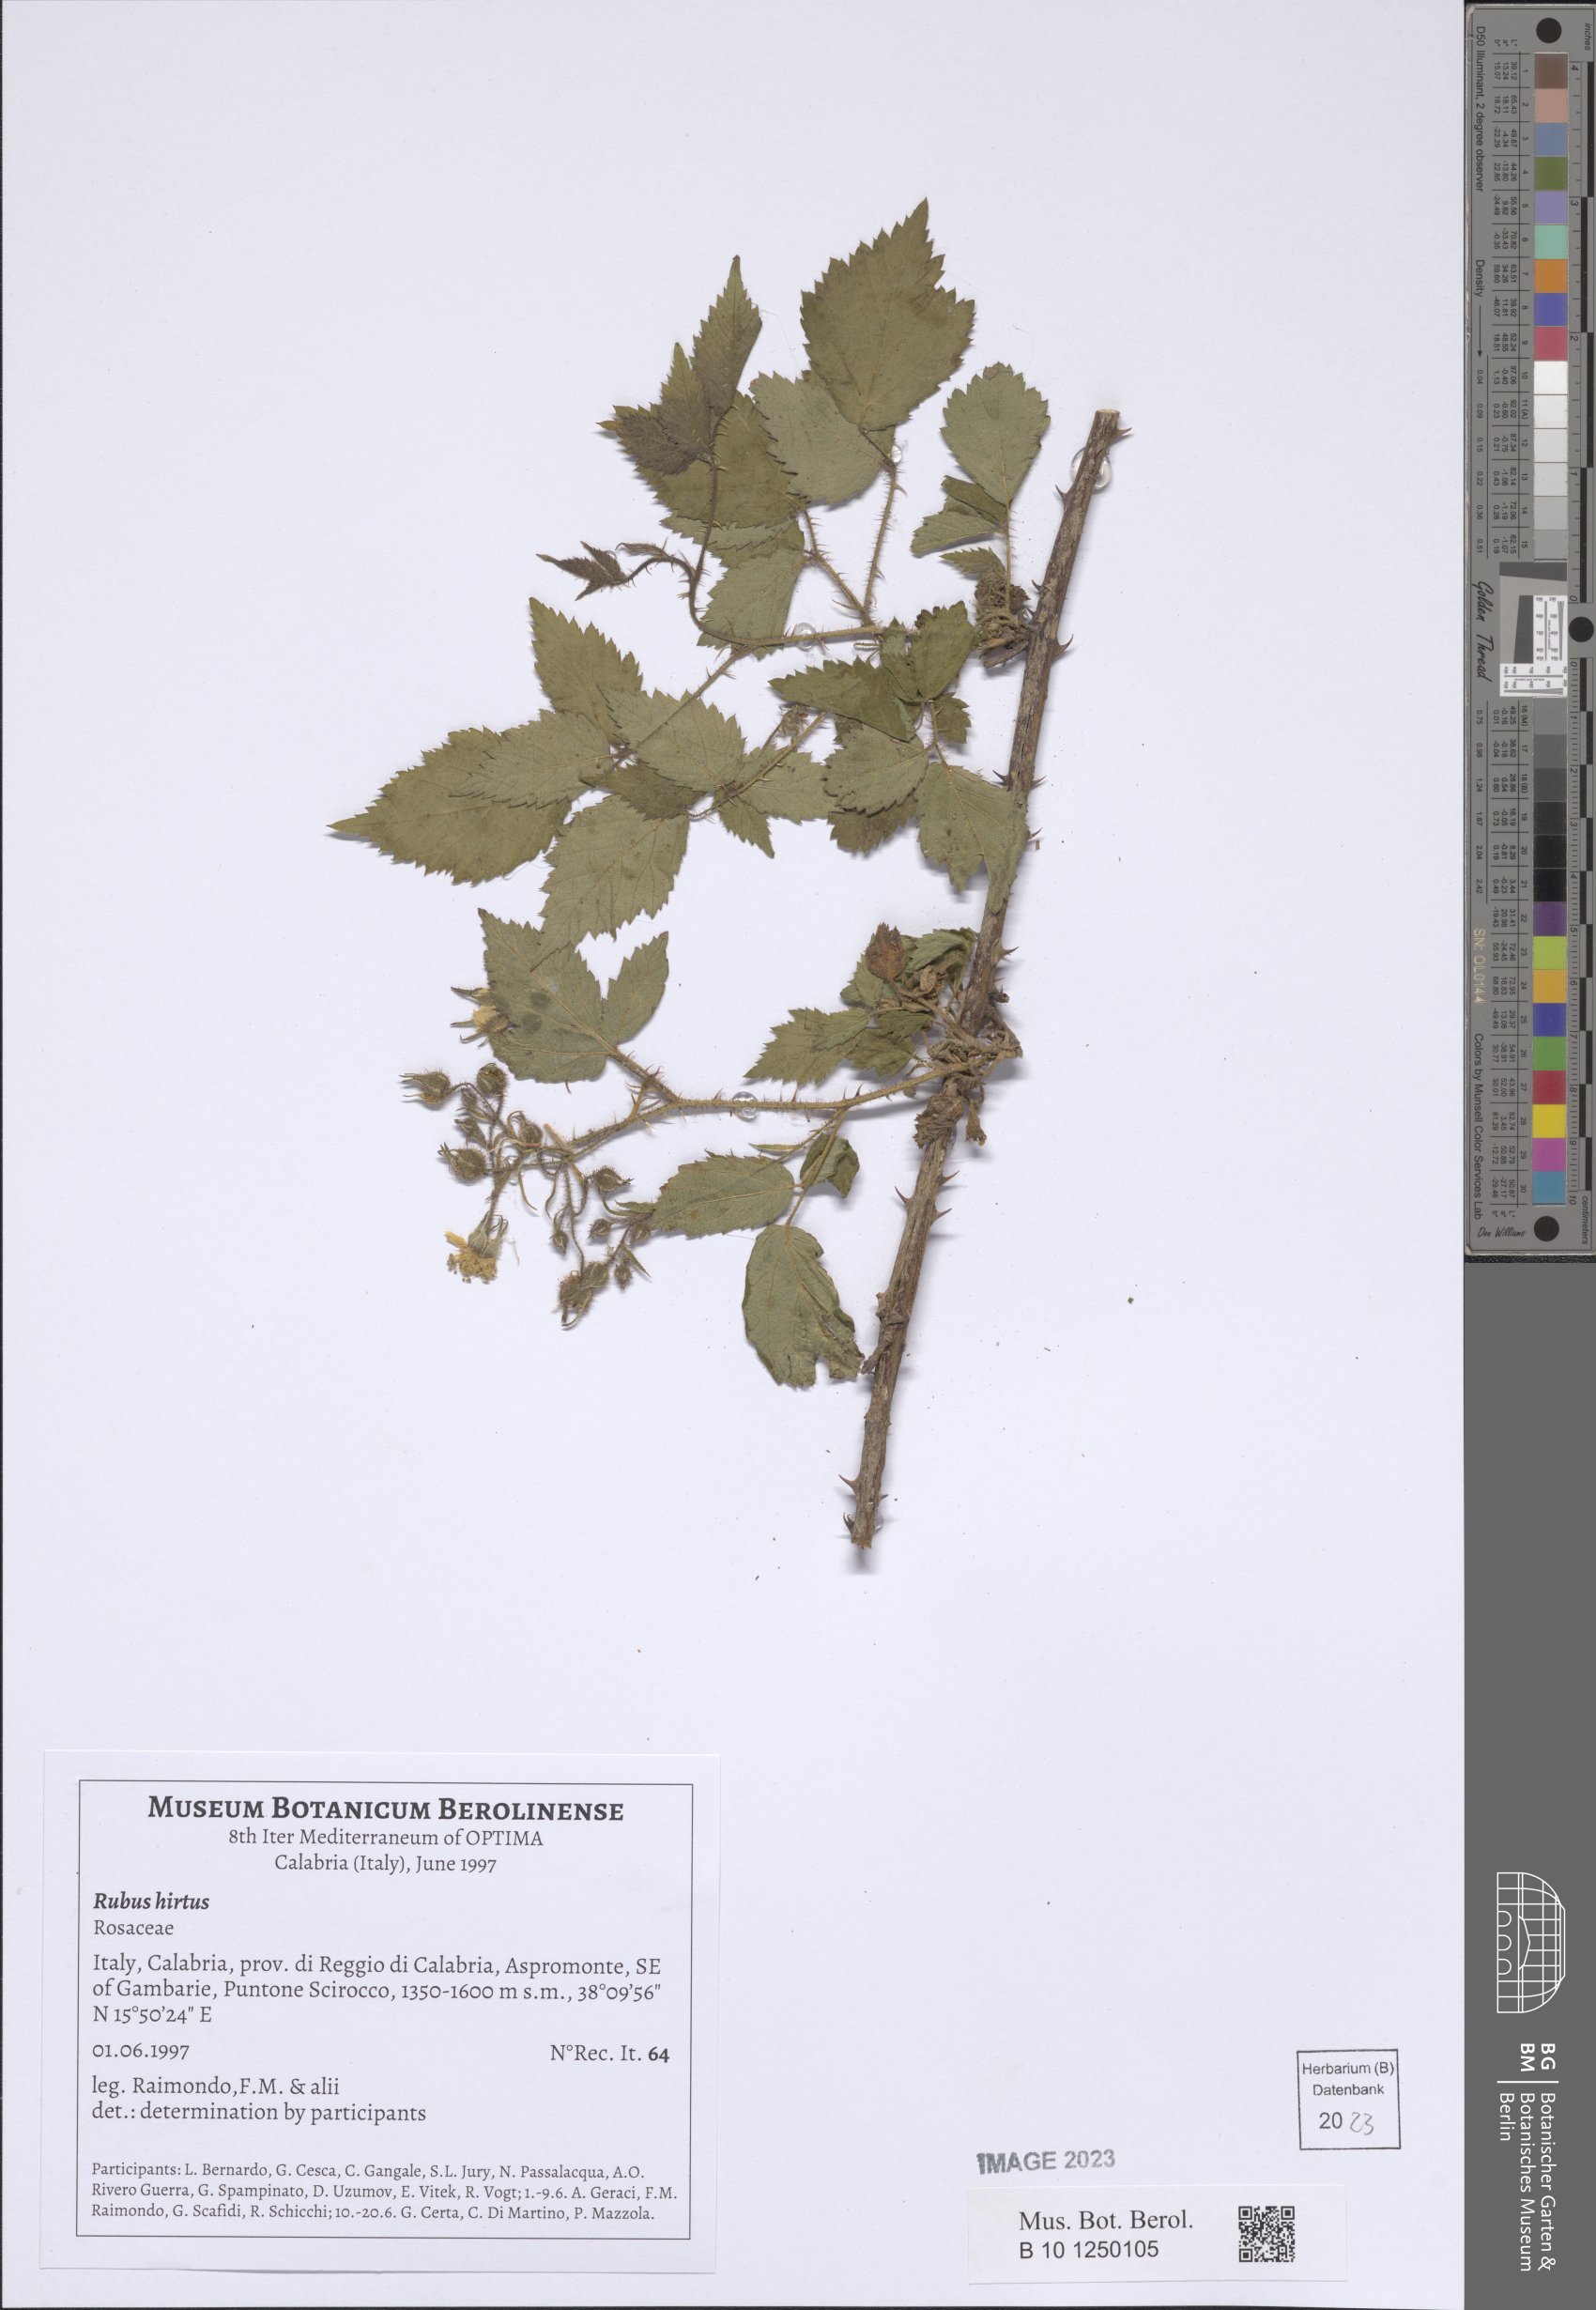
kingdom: Plantae
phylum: Tracheophyta
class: Magnoliopsida
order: Rosales
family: Rosaceae
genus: Rubus
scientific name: Rubus hirtus
